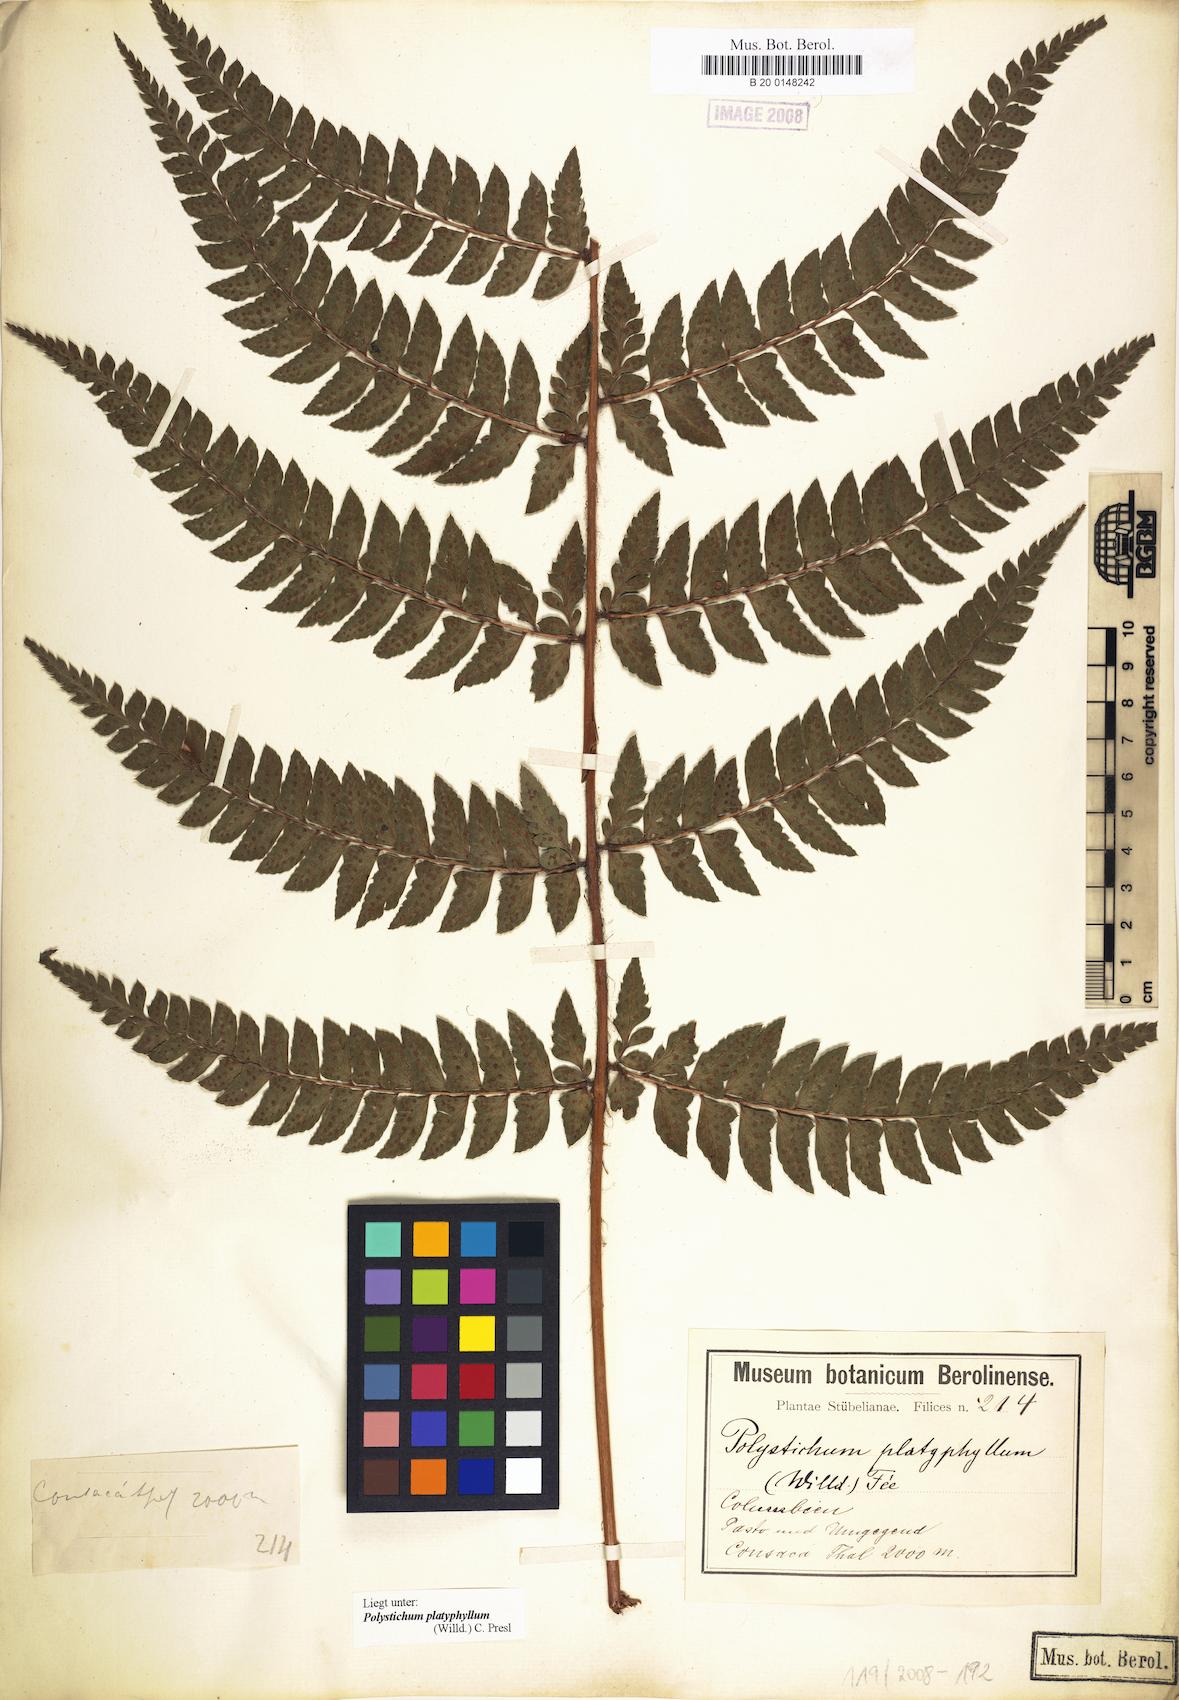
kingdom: Plantae
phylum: Tracheophyta
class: Polypodiopsida
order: Polypodiales
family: Dryopteridaceae
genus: Polystichum
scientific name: Polystichum platyphyllum
